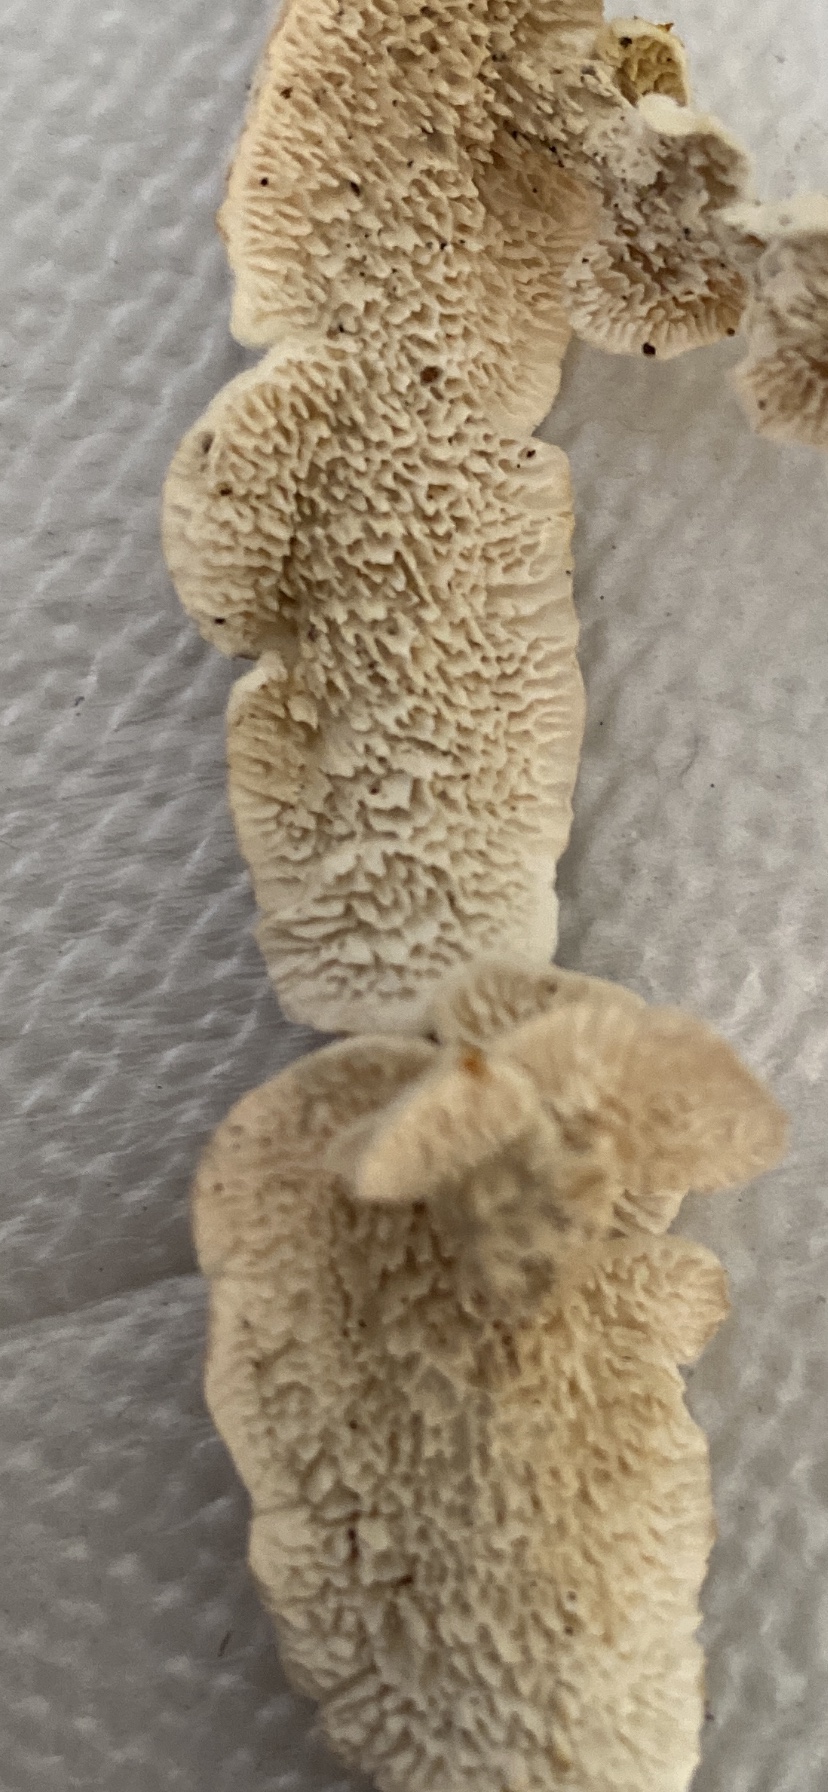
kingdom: Fungi
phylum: Basidiomycota
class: Agaricomycetes
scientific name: Agaricomycetes
